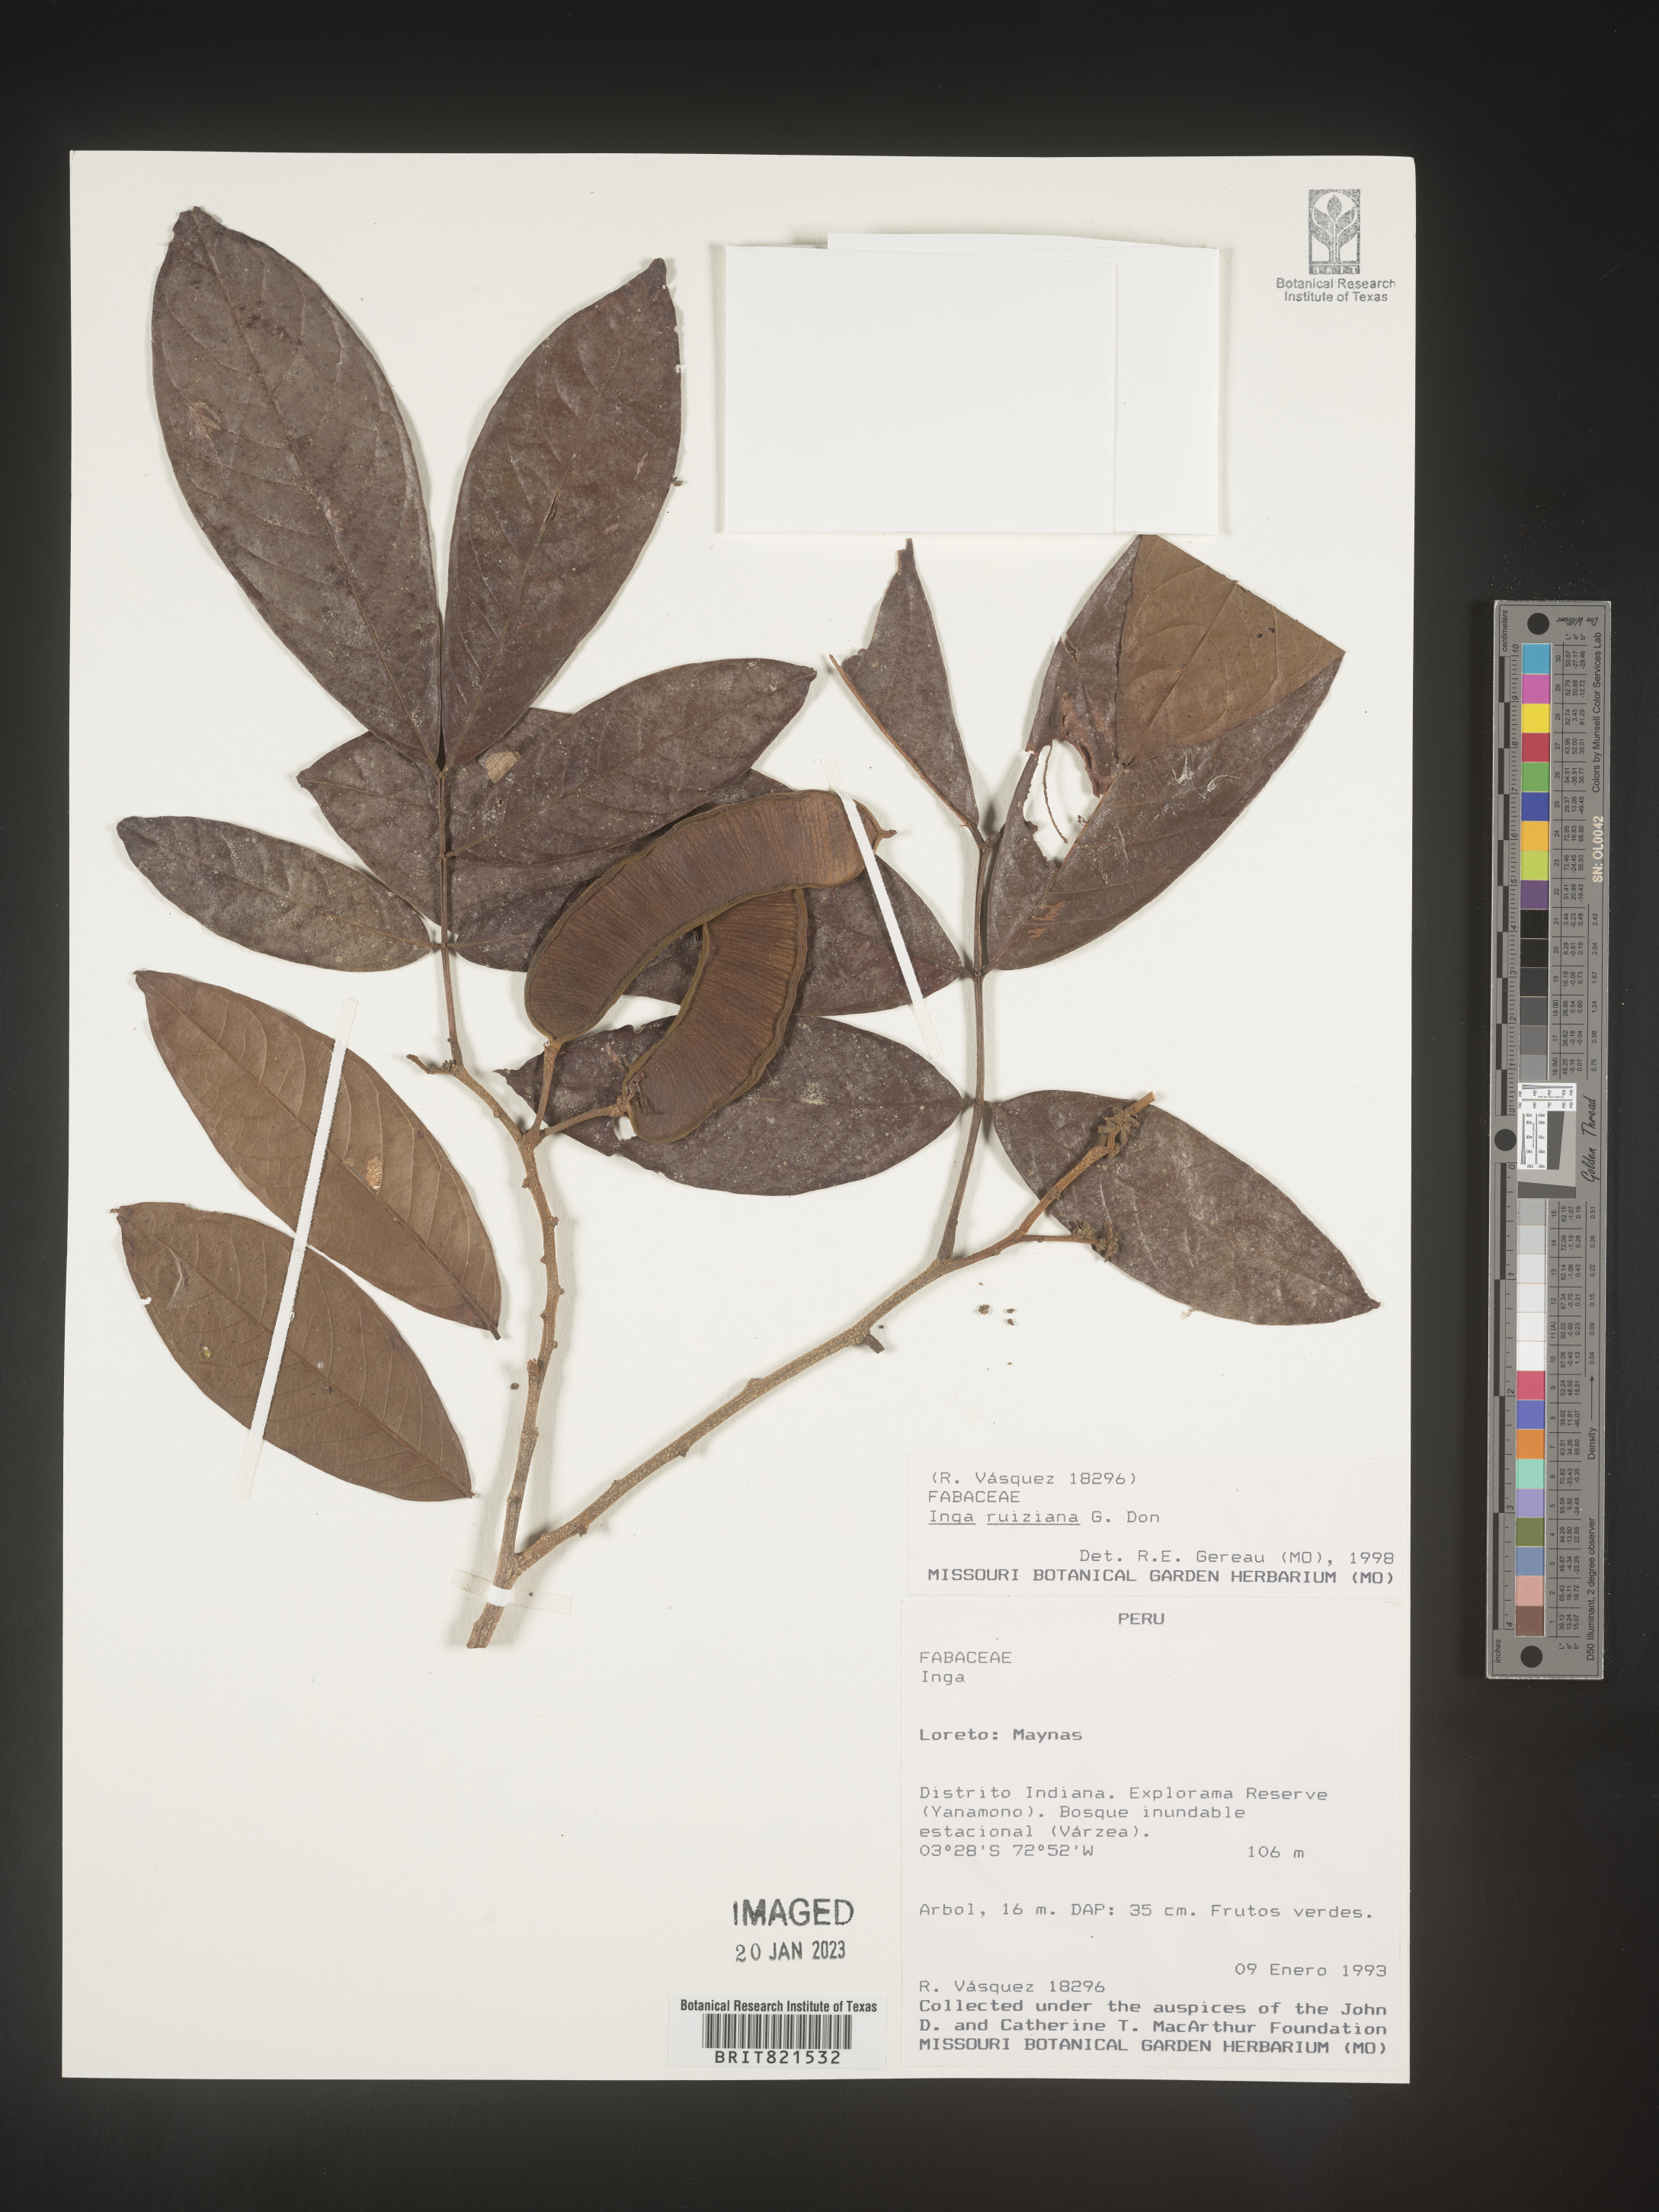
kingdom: Plantae
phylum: Tracheophyta
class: Magnoliopsida
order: Fabales
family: Fabaceae
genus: Inga
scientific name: Inga
